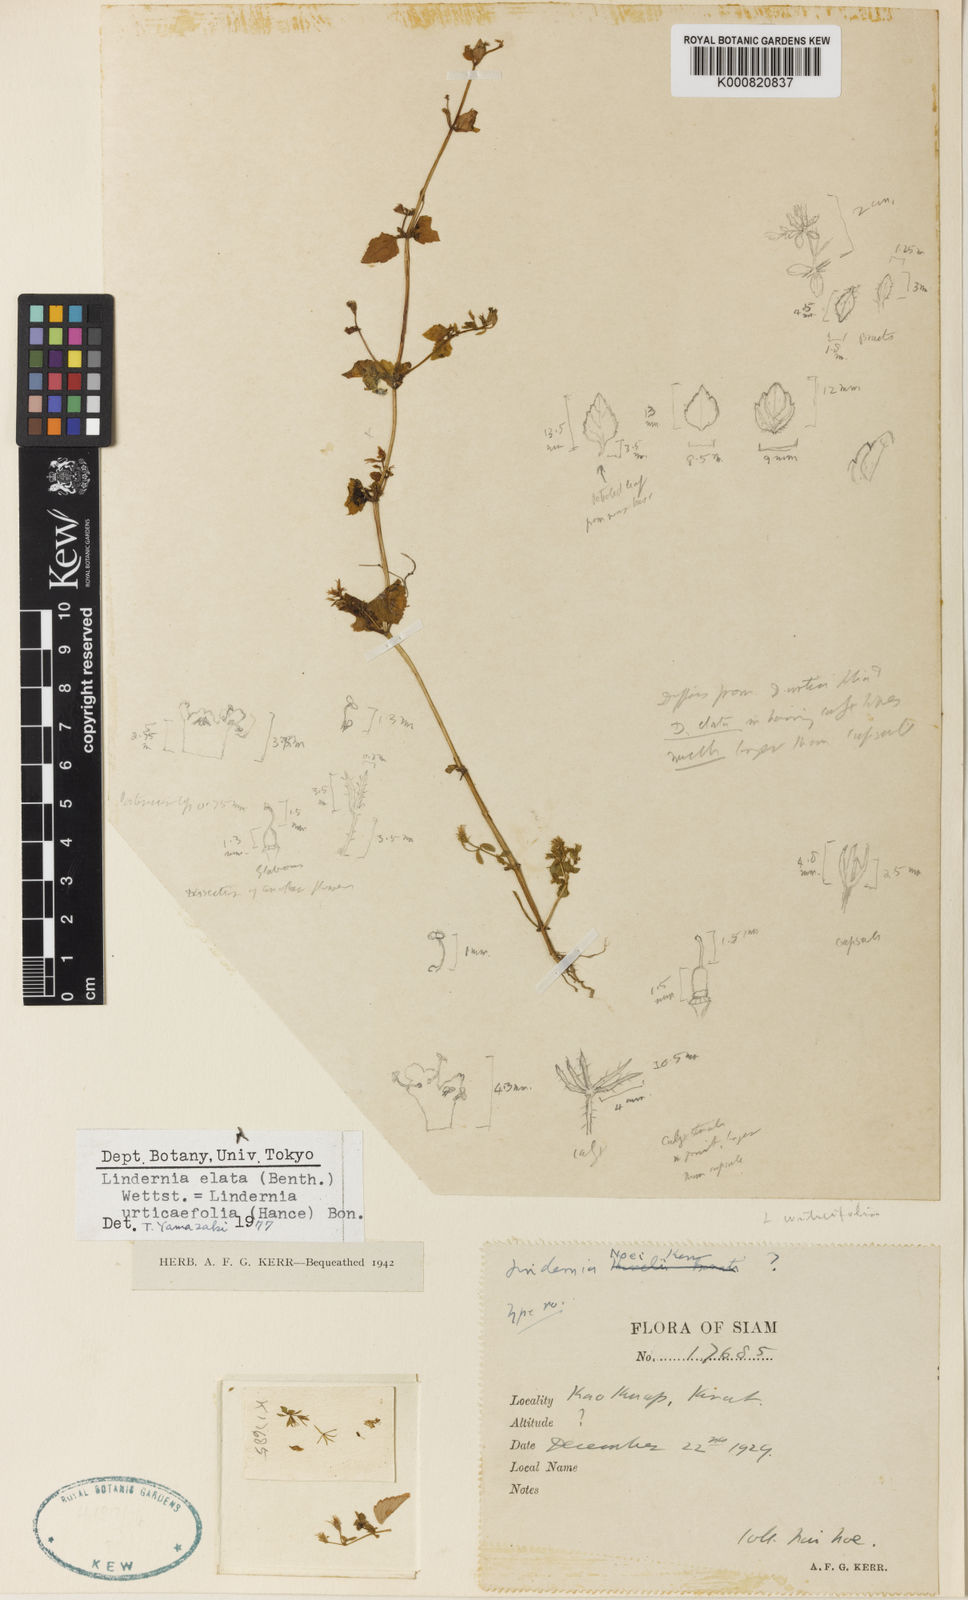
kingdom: Plantae
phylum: Tracheophyta
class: Magnoliopsida
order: Lamiales
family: Linderniaceae
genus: Vandellia
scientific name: Vandellia elata
